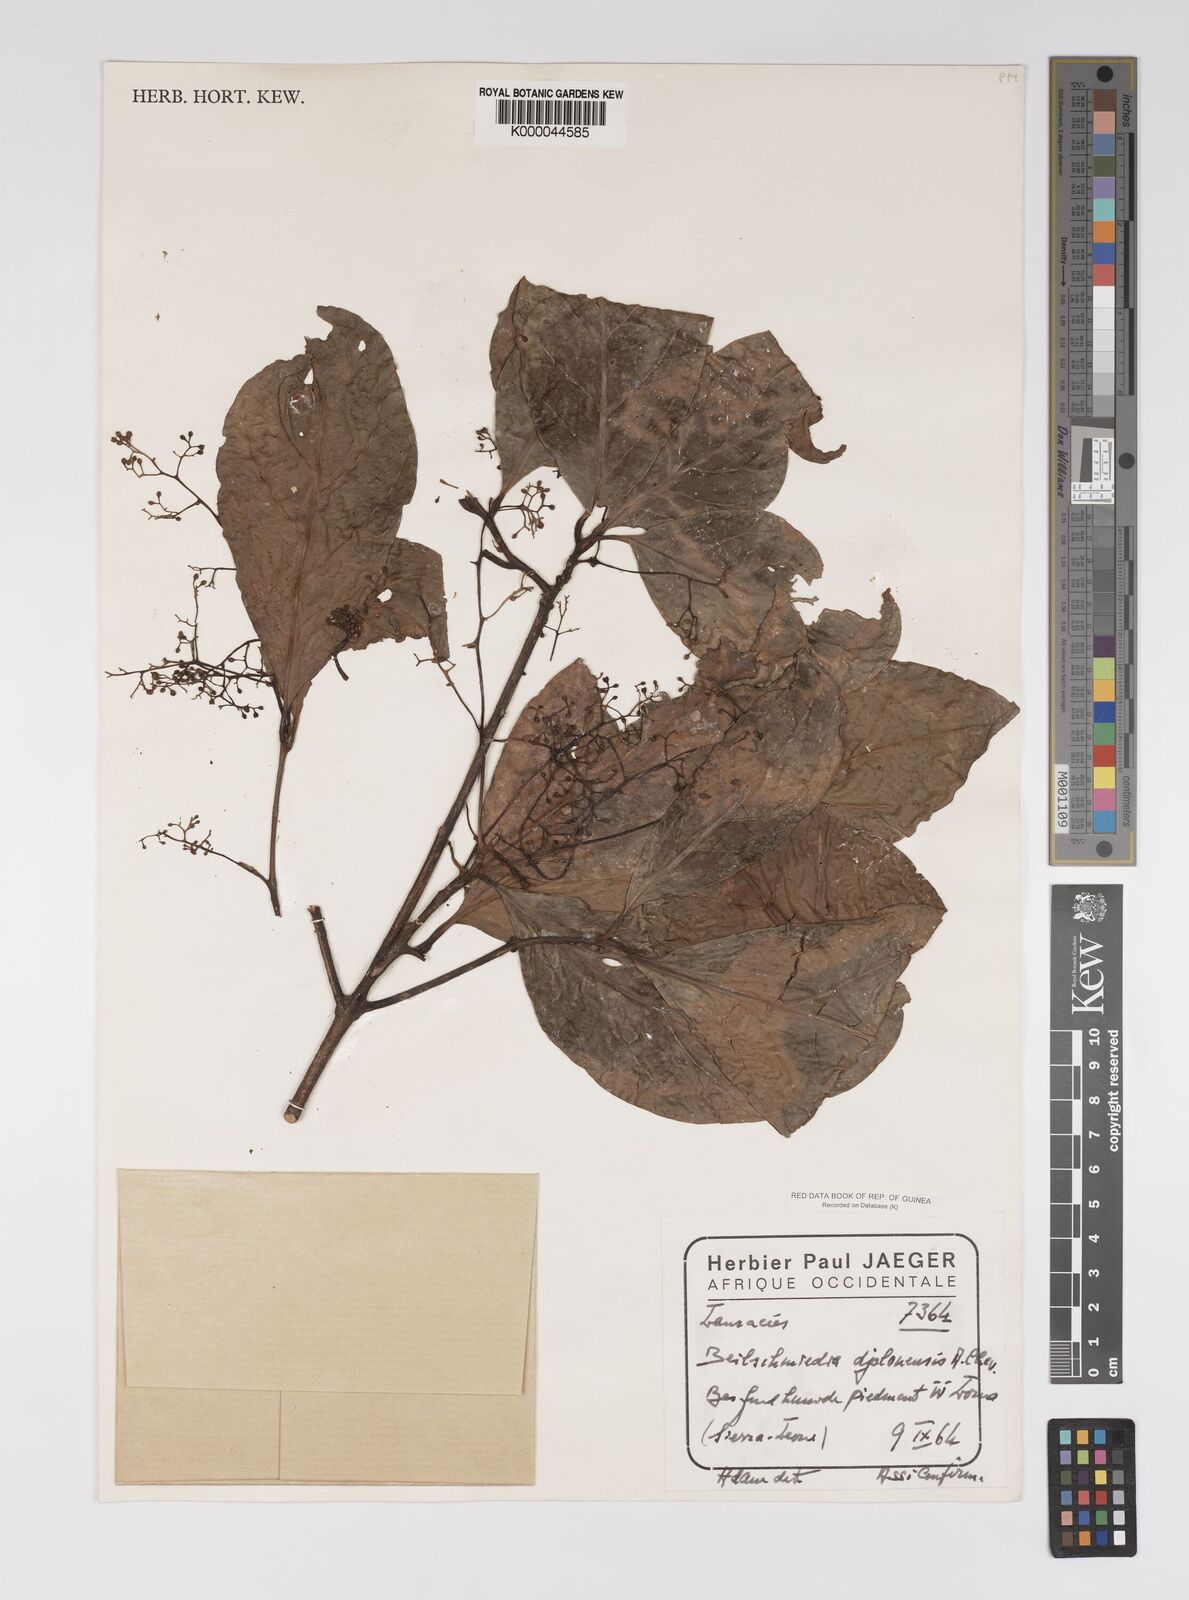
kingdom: Plantae
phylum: Tracheophyta
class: Magnoliopsida
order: Laurales
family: Lauraceae
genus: Beilschmiedia
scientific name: Beilschmiedia djalonensis
